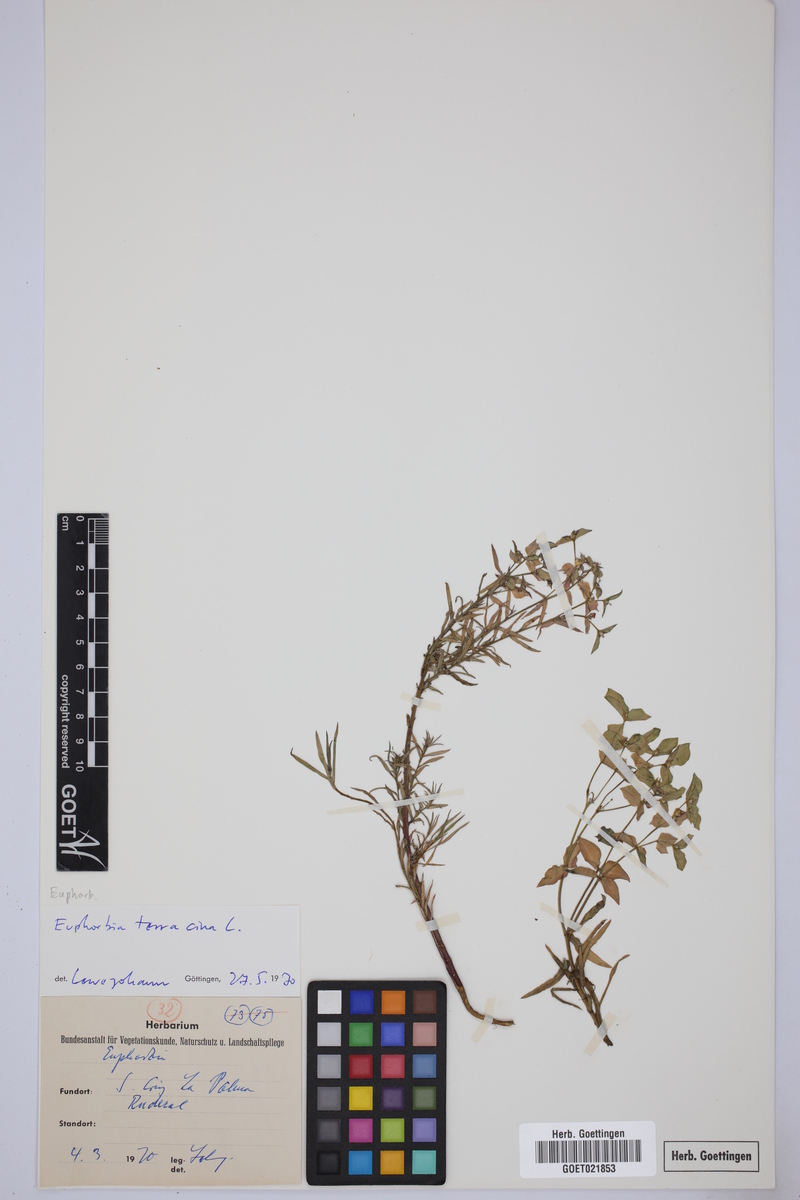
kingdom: Plantae
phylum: Tracheophyta
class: Magnoliopsida
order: Malpighiales
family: Euphorbiaceae
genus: Euphorbia
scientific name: Euphorbia terracina
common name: Geraldton carnation weed
